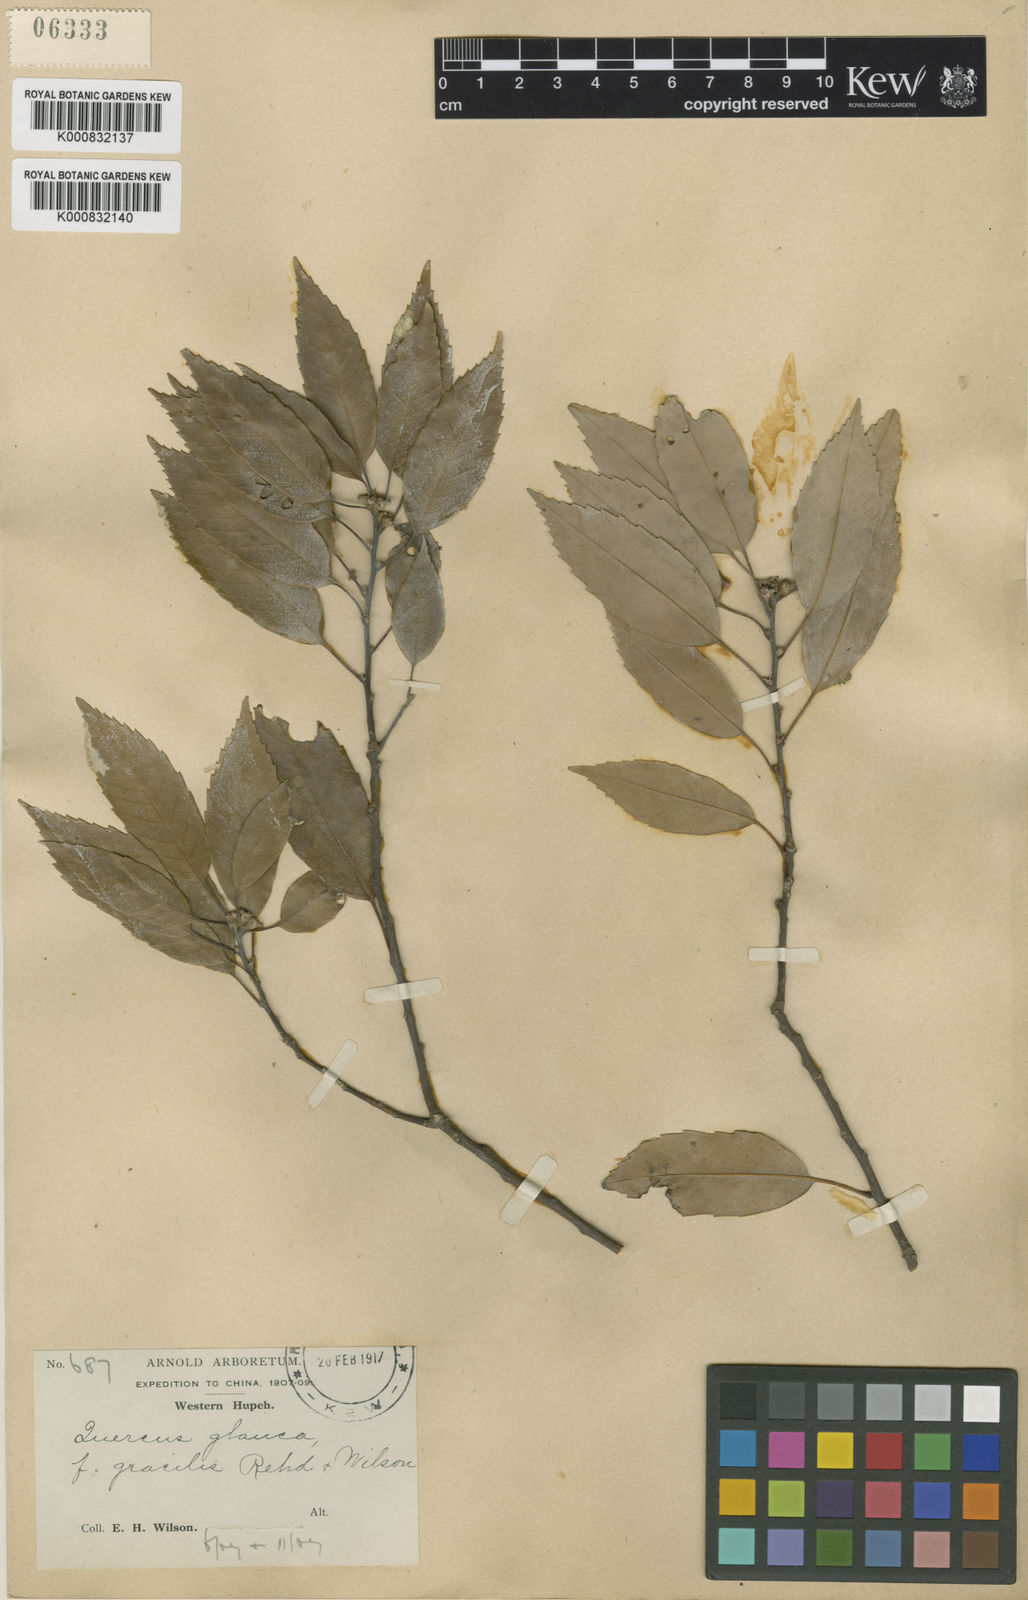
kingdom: Plantae
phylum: Tracheophyta
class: Magnoliopsida
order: Fagales
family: Fagaceae
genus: Quercus
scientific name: Quercus ciliaris
